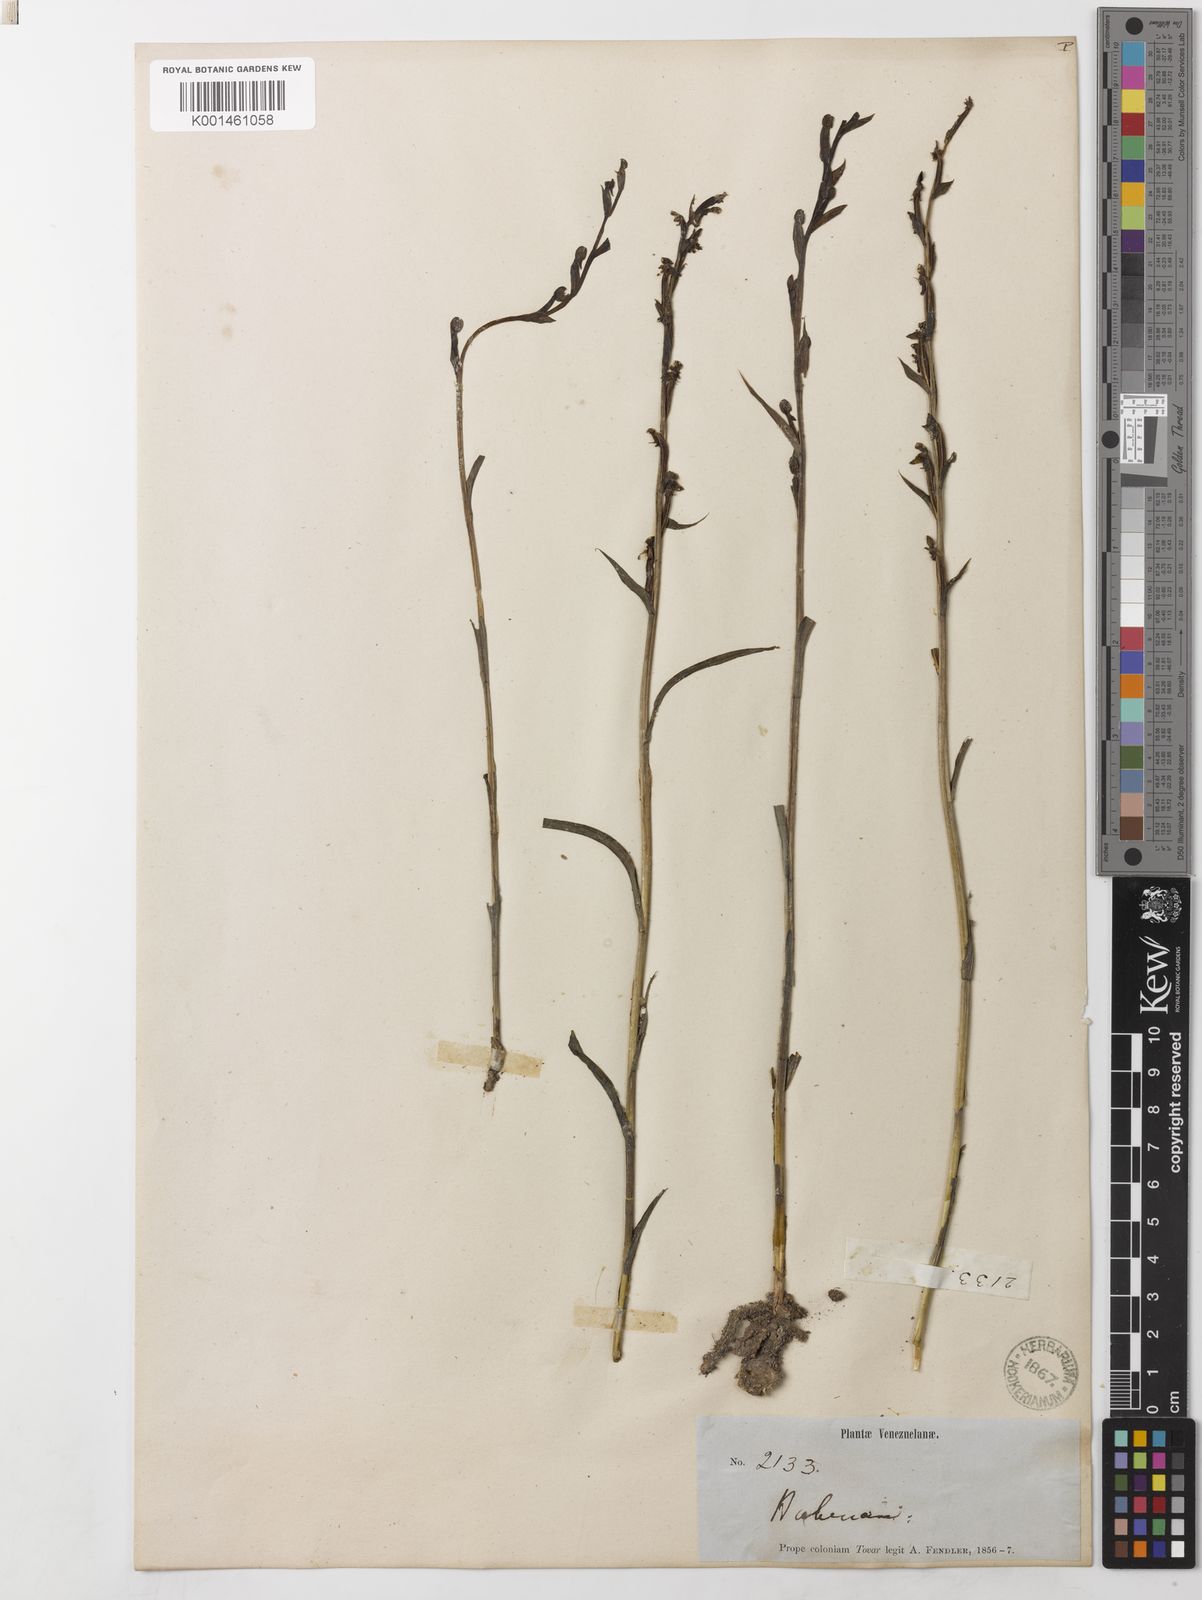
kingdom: Plantae
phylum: Tracheophyta
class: Liliopsida
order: Asparagales
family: Orchidaceae
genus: Habenaria
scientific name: Habenaria leprieurii
